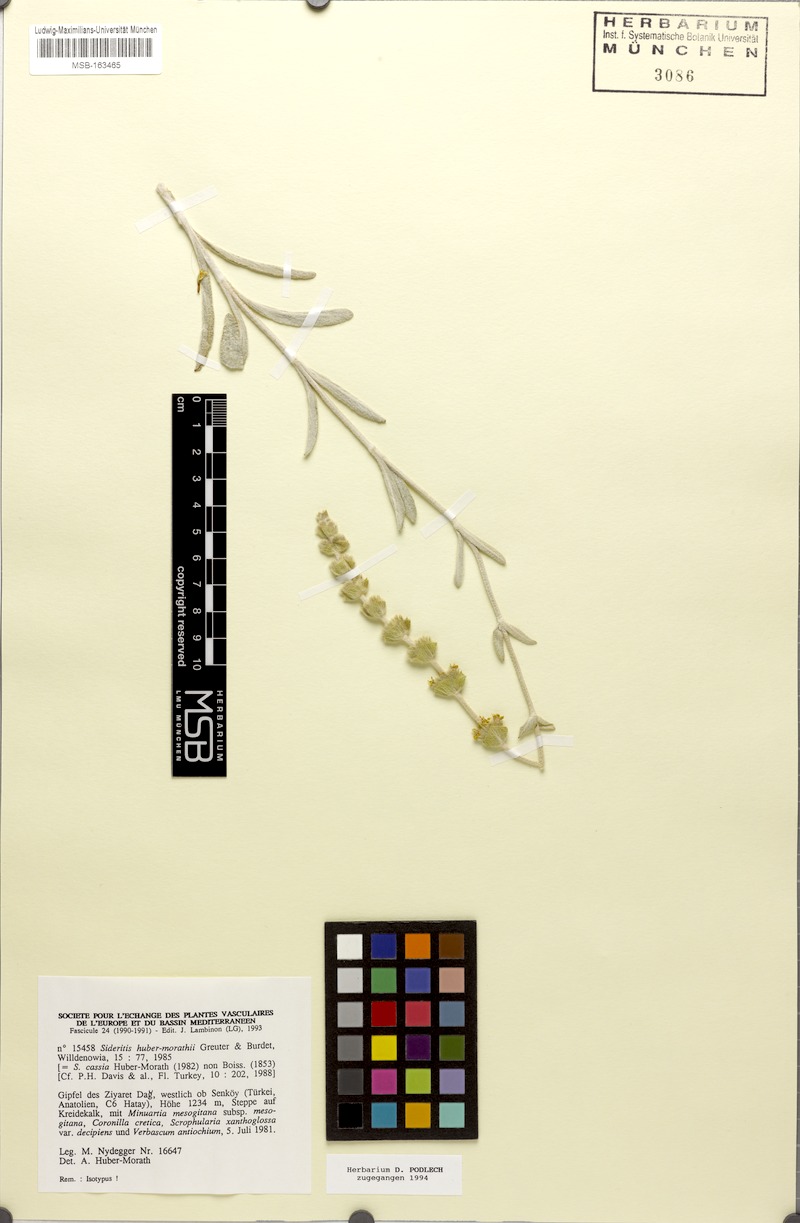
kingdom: Plantae
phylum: Tracheophyta
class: Magnoliopsida
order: Lamiales
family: Lamiaceae
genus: Sideritis
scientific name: Sideritis huber-morathii
